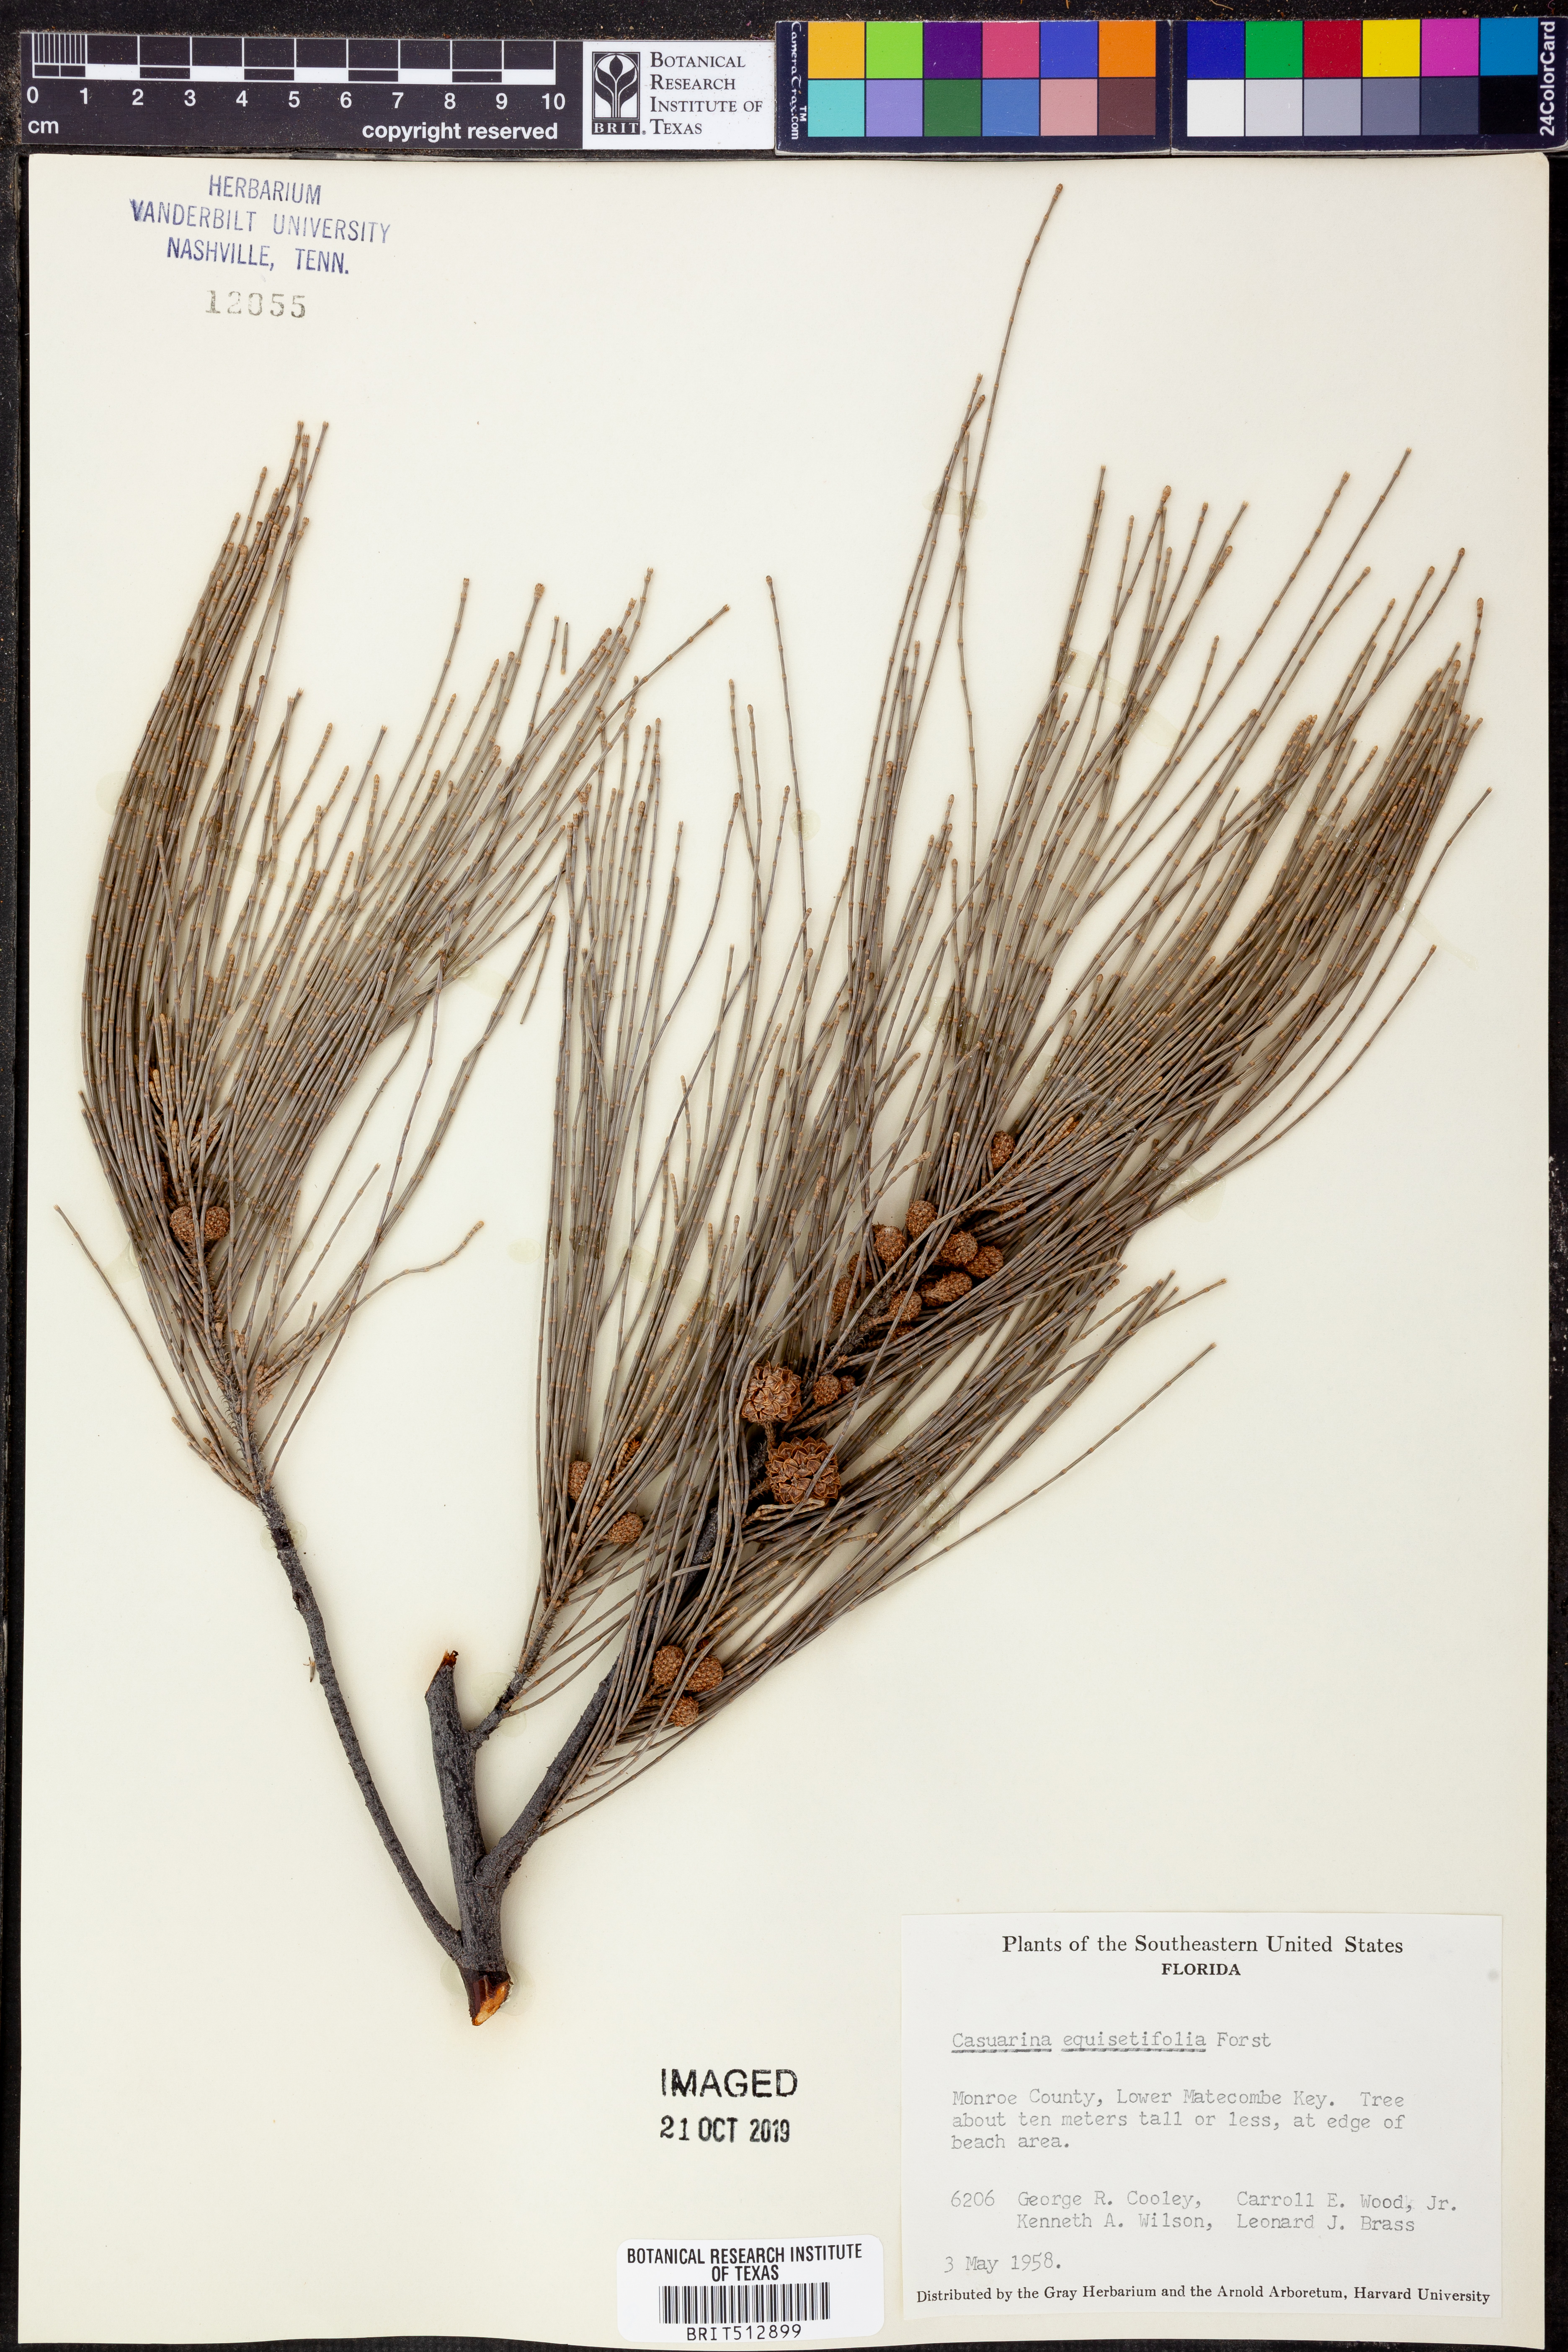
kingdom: Plantae
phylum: Tracheophyta
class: Magnoliopsida
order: Fagales
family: Casuarinaceae
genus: Casuarina
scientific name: Casuarina equisetifolia
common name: Beach sheoak
